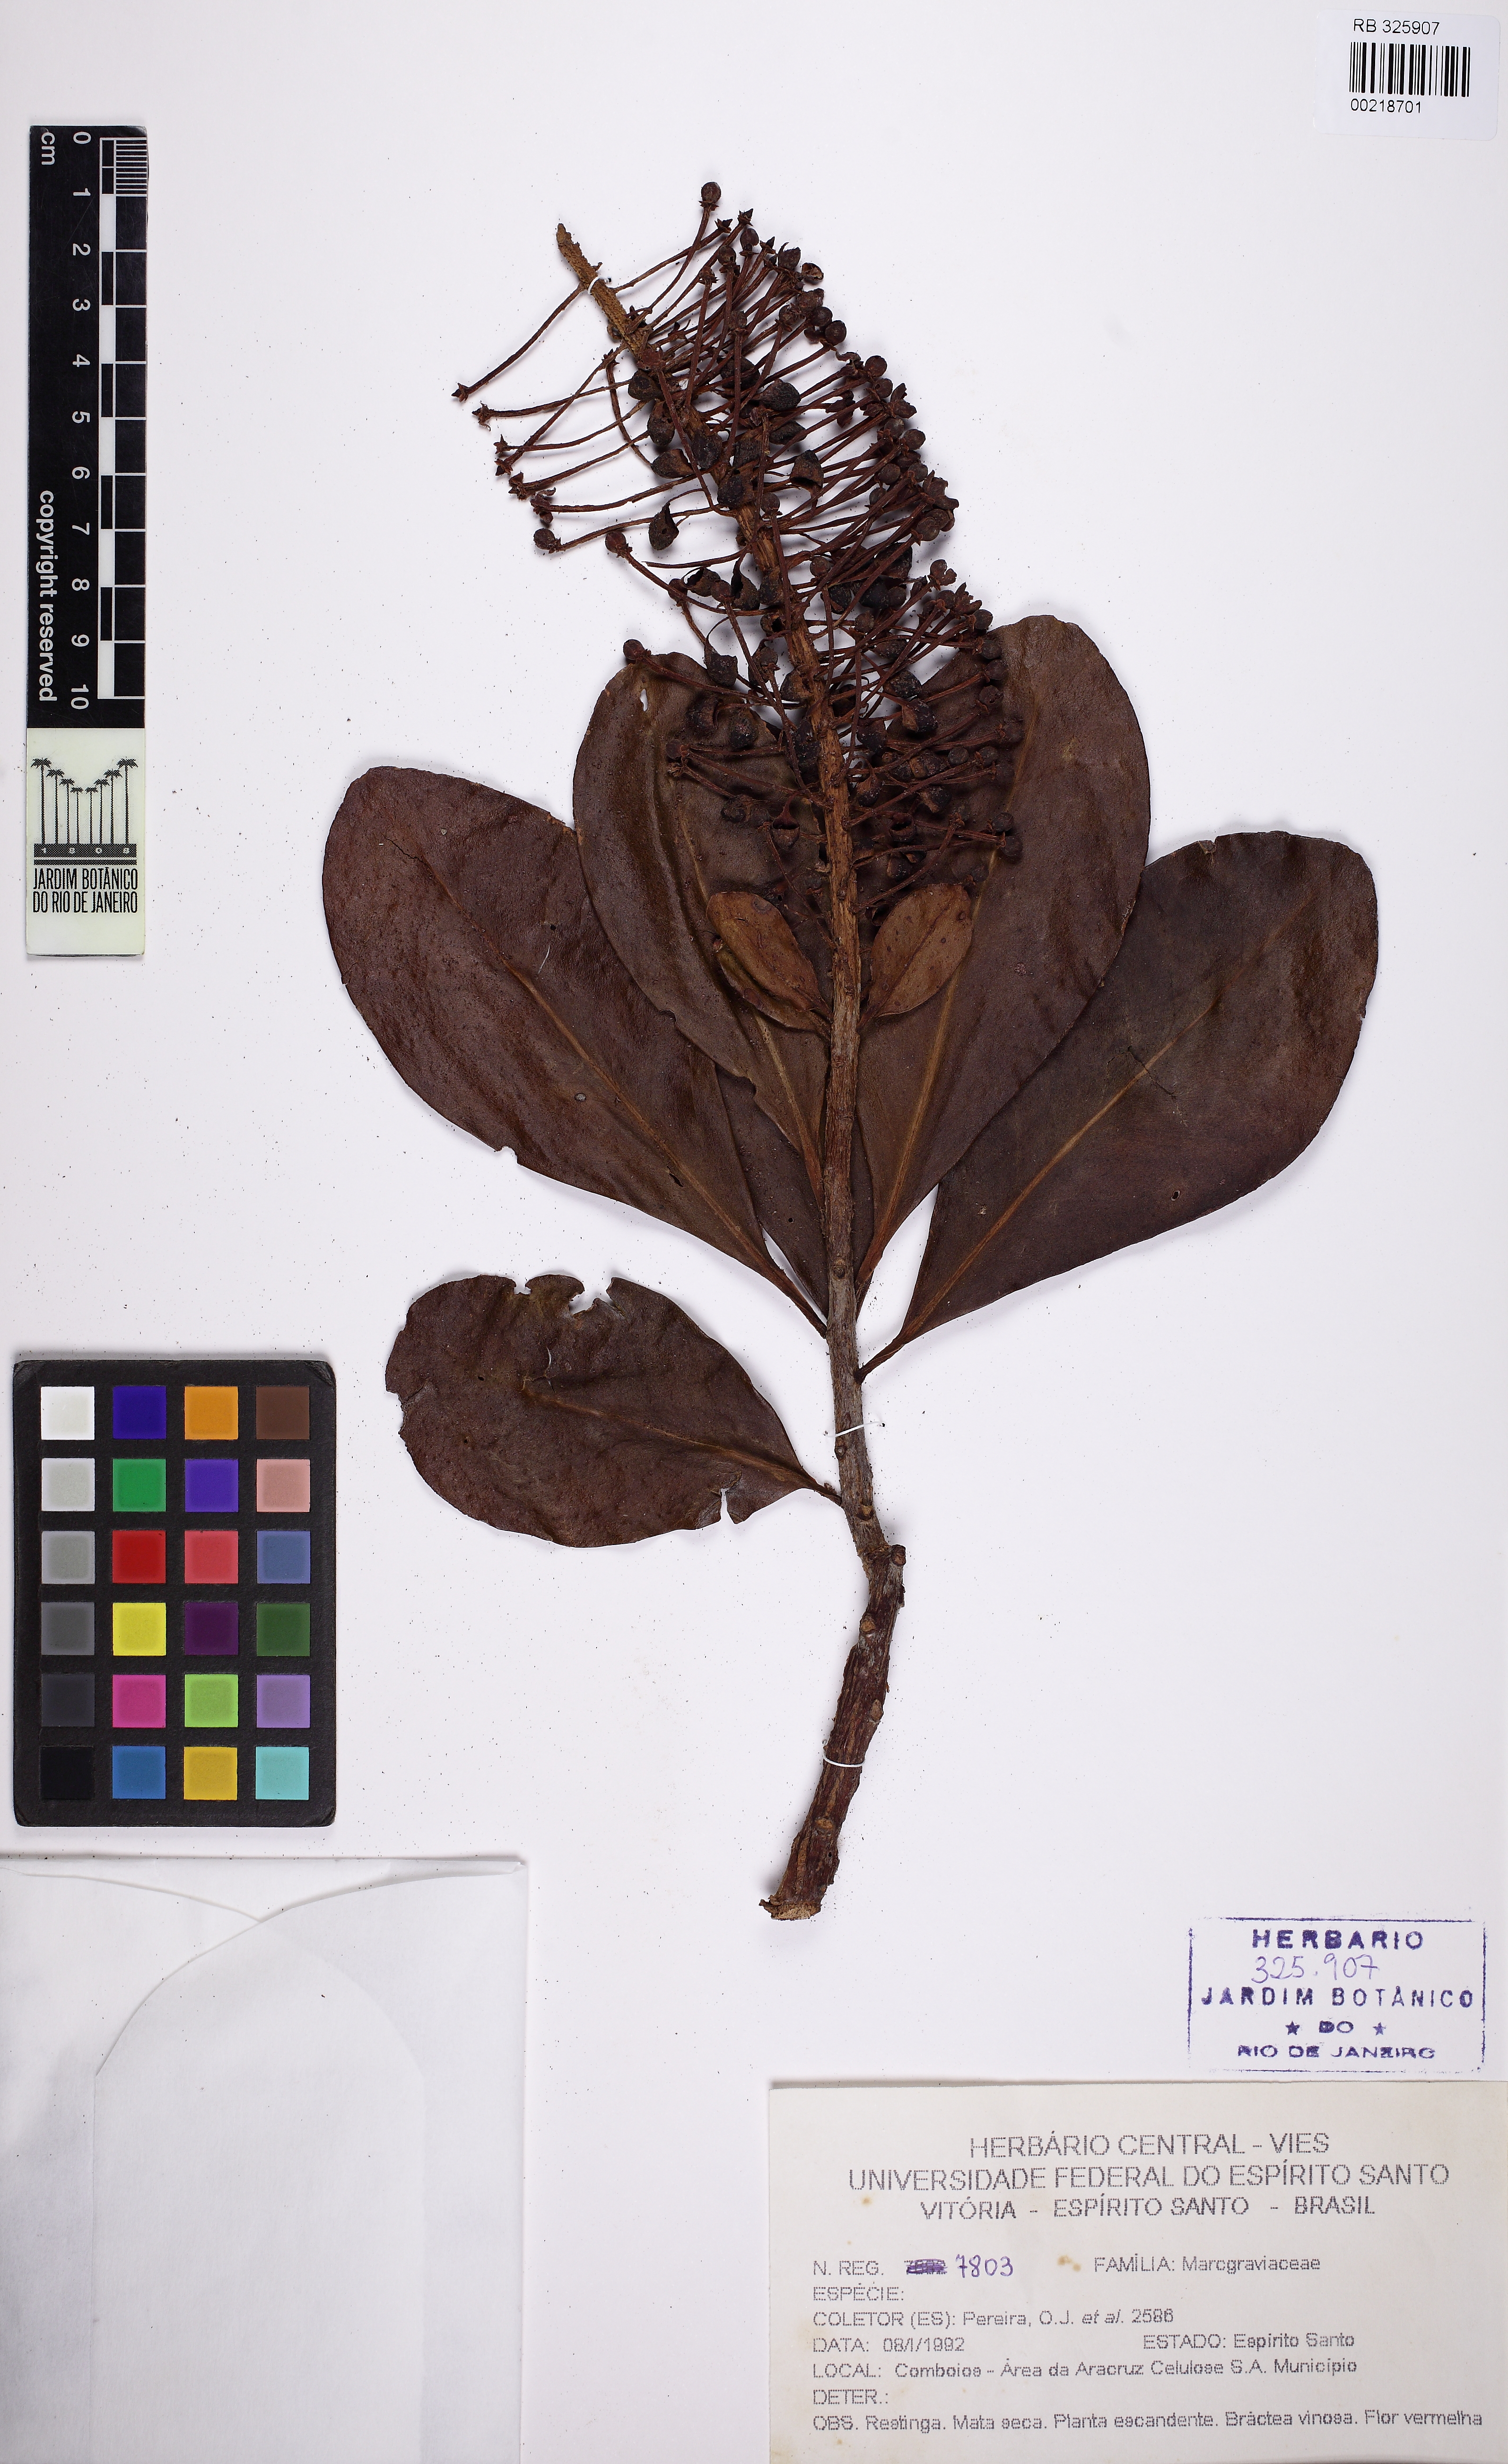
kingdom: Plantae
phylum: Tracheophyta
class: Magnoliopsida
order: Ericales
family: Marcgraviaceae
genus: Schwartzia
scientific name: Schwartzia brasiliensis
